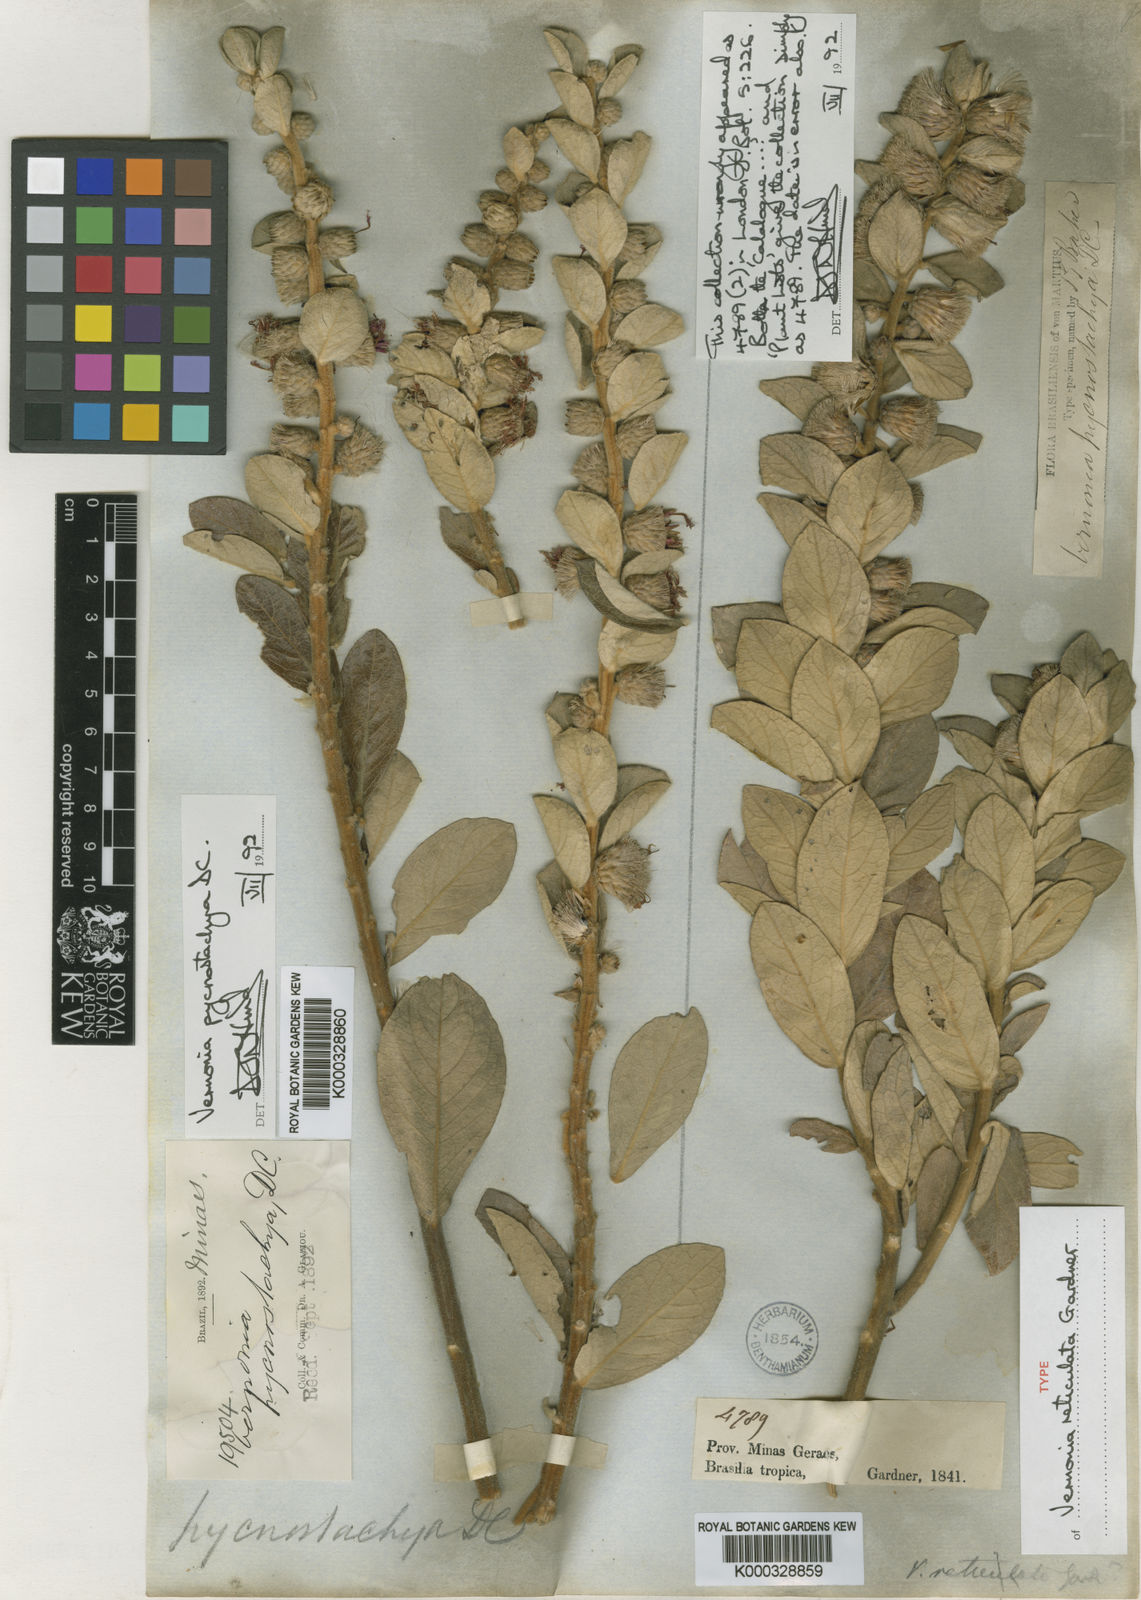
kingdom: Plantae
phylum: Tracheophyta
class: Magnoliopsida
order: Asterales
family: Asteraceae
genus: Lessingianthus
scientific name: Lessingianthus pycnostachyus
